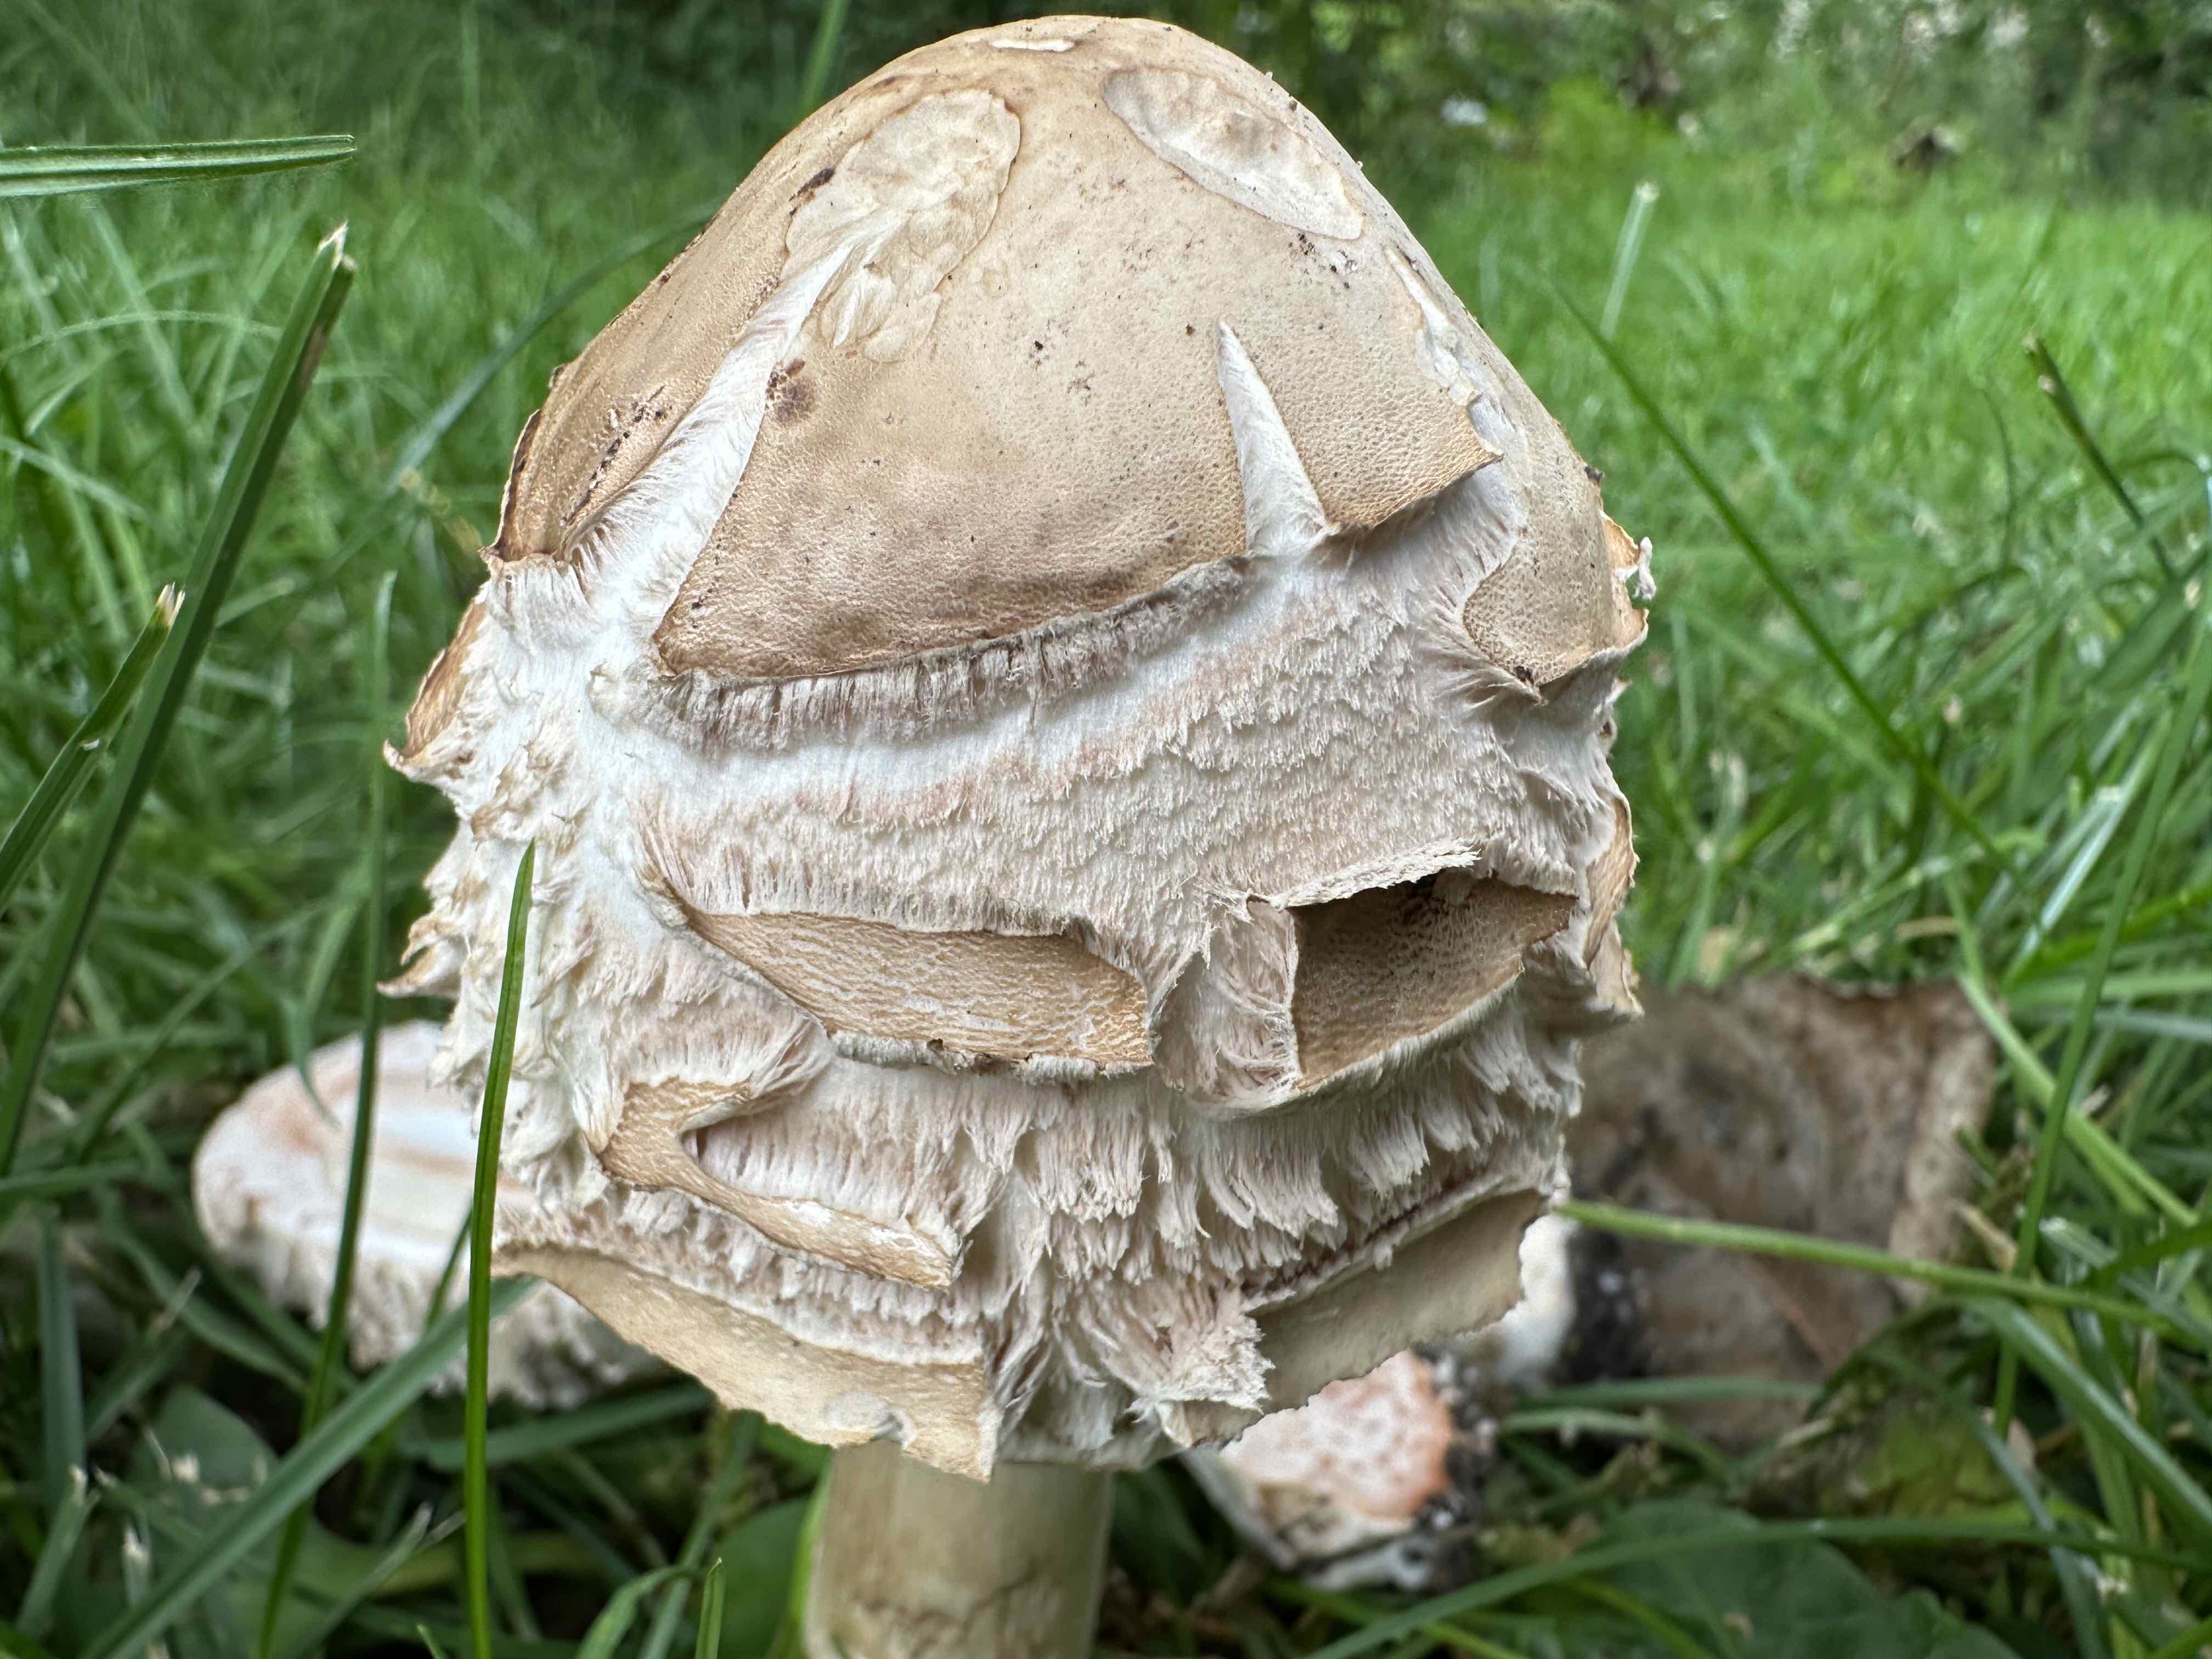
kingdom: Fungi
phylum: Basidiomycota
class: Agaricomycetes
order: Agaricales
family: Agaricaceae
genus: Chlorophyllum
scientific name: Chlorophyllum rhacodes
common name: ægte rabarberhat
